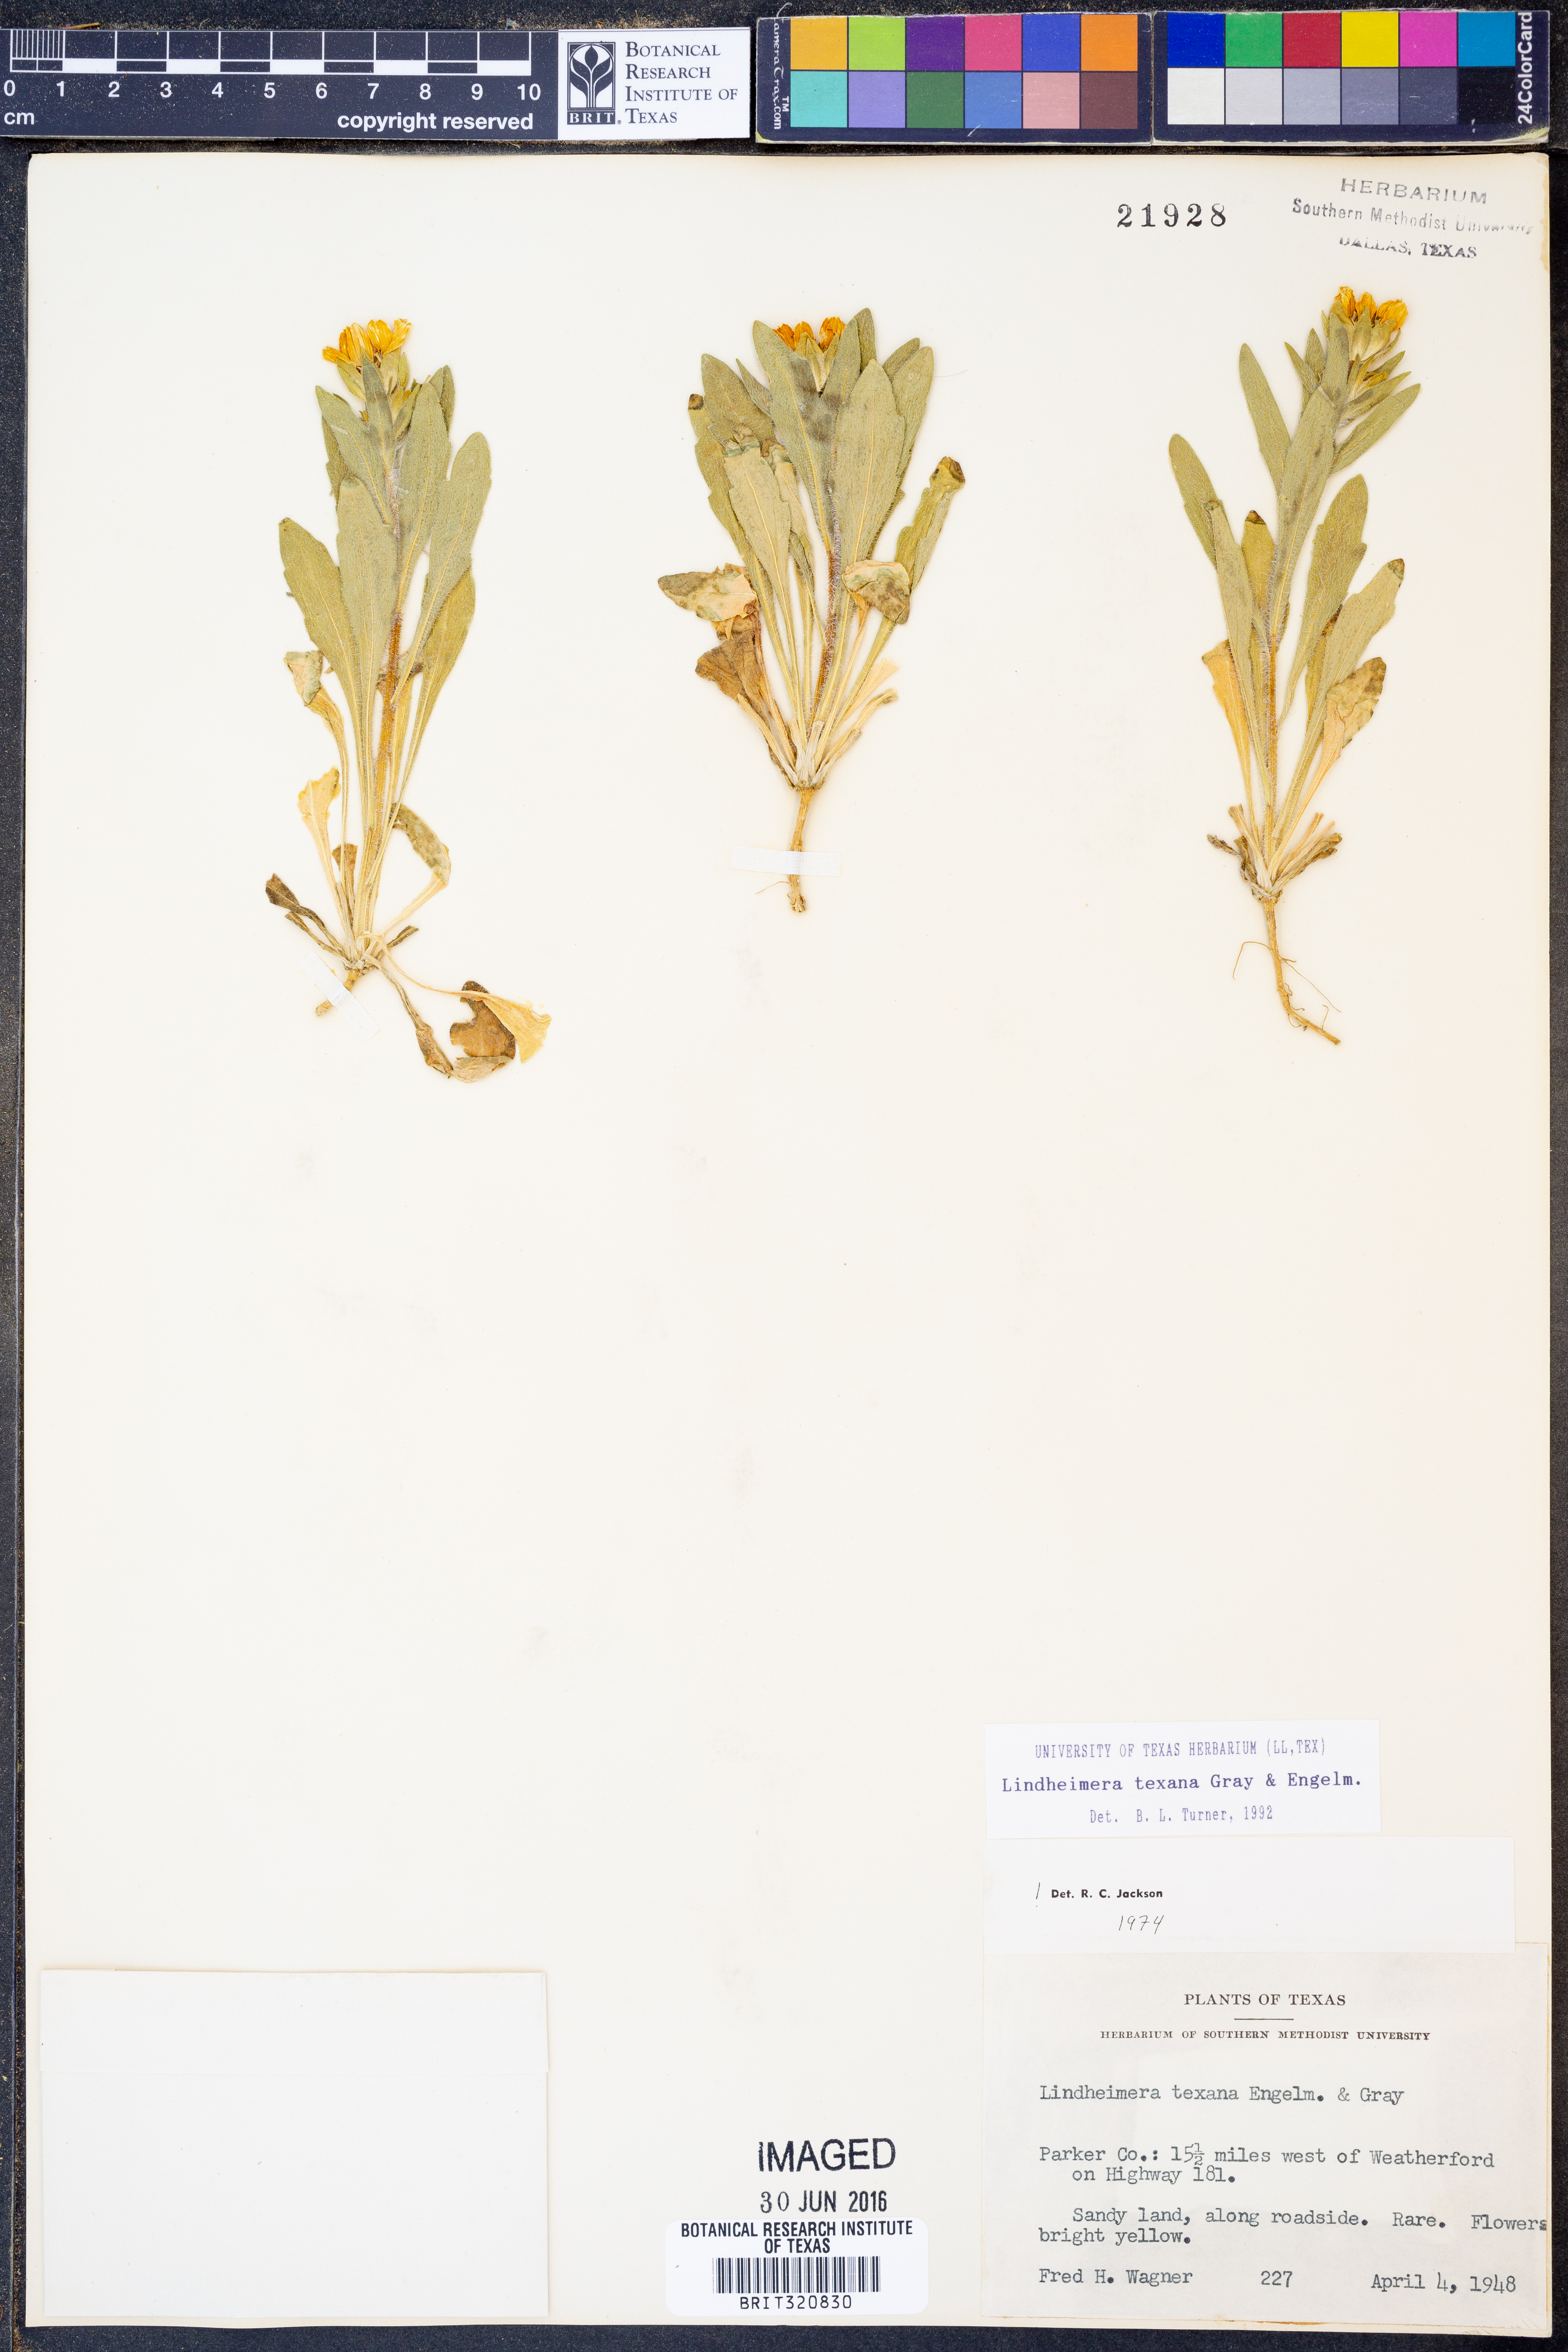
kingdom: Plantae
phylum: Tracheophyta
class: Magnoliopsida
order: Asterales
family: Asteraceae
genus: Lindheimera
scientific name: Lindheimera texana
